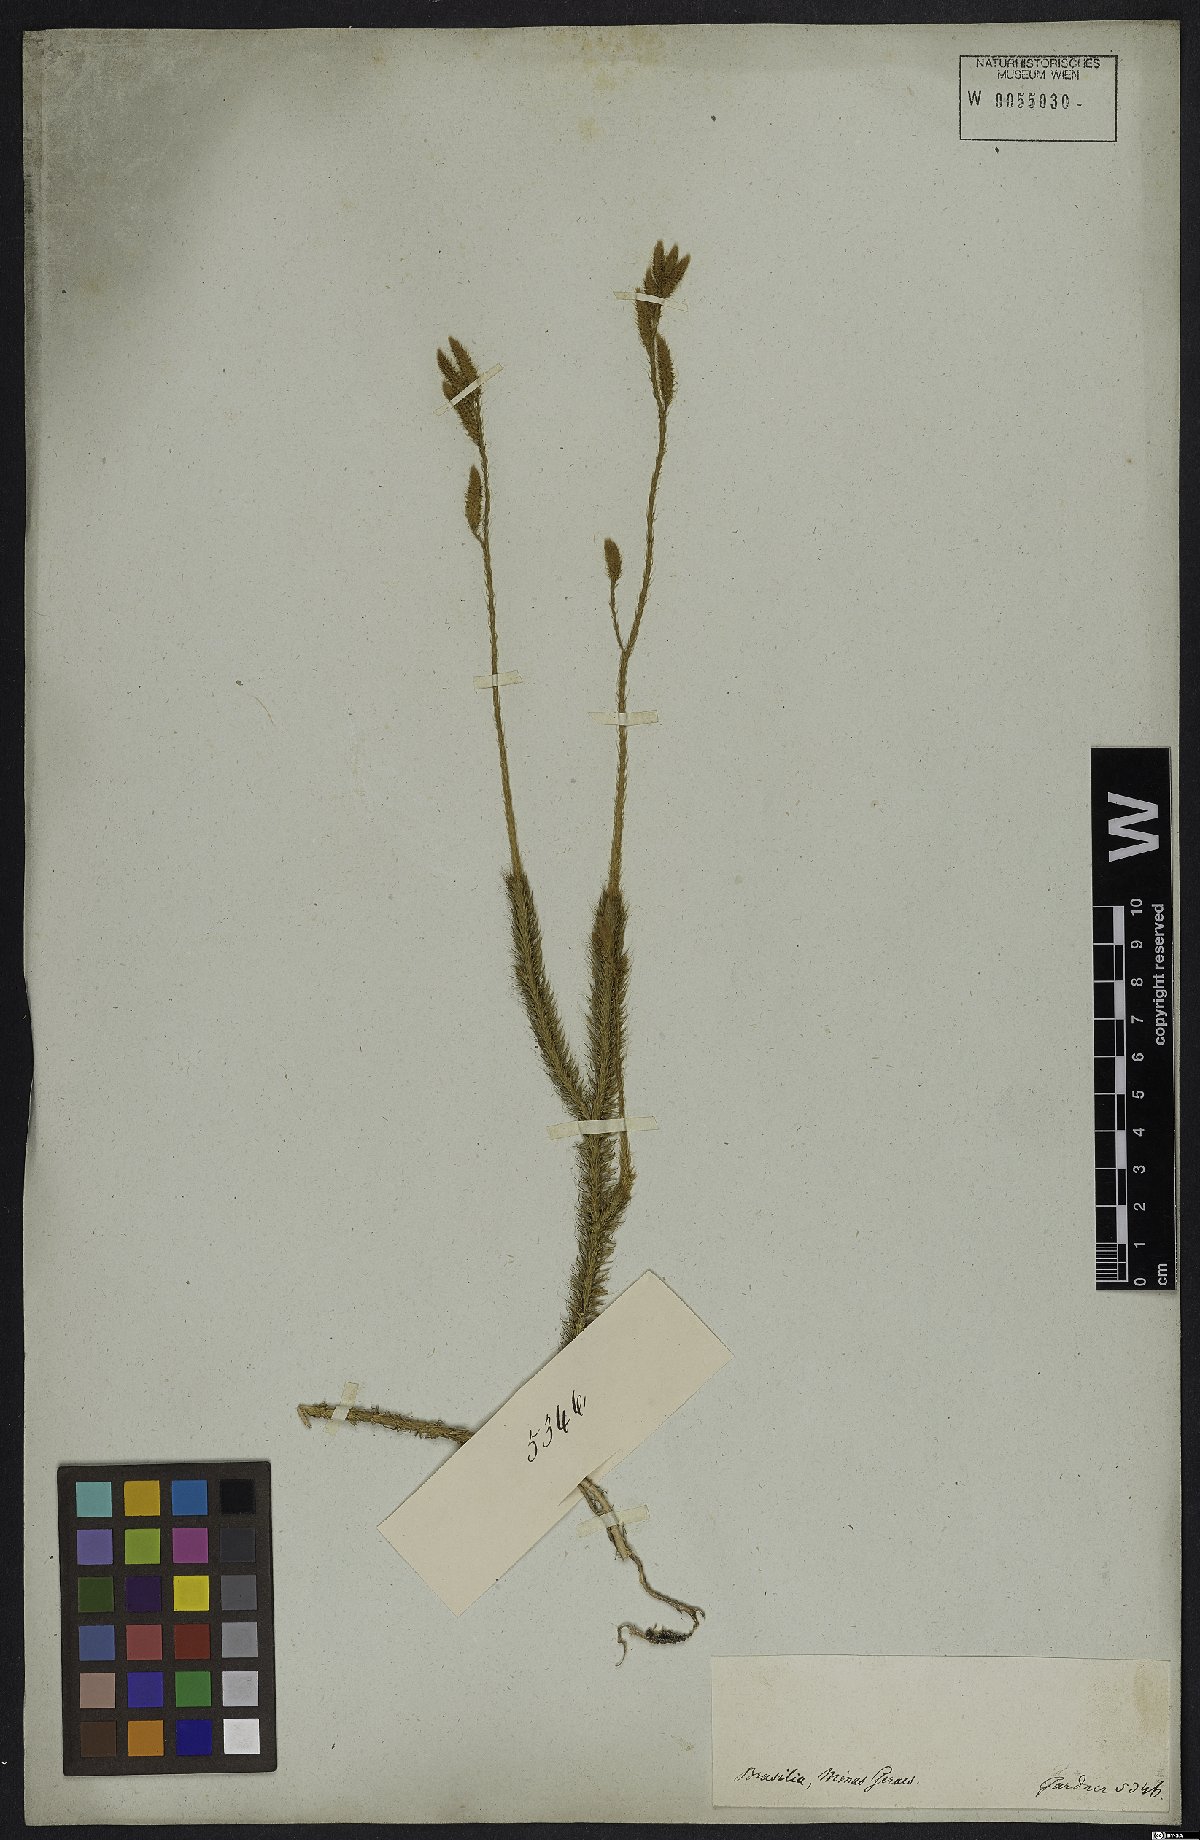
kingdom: Plantae
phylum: Tracheophyta
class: Lycopodiopsida
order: Lycopodiales
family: Lycopodiaceae
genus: Lycopodium
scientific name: Lycopodium clavatum
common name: Stag's-horn clubmoss
